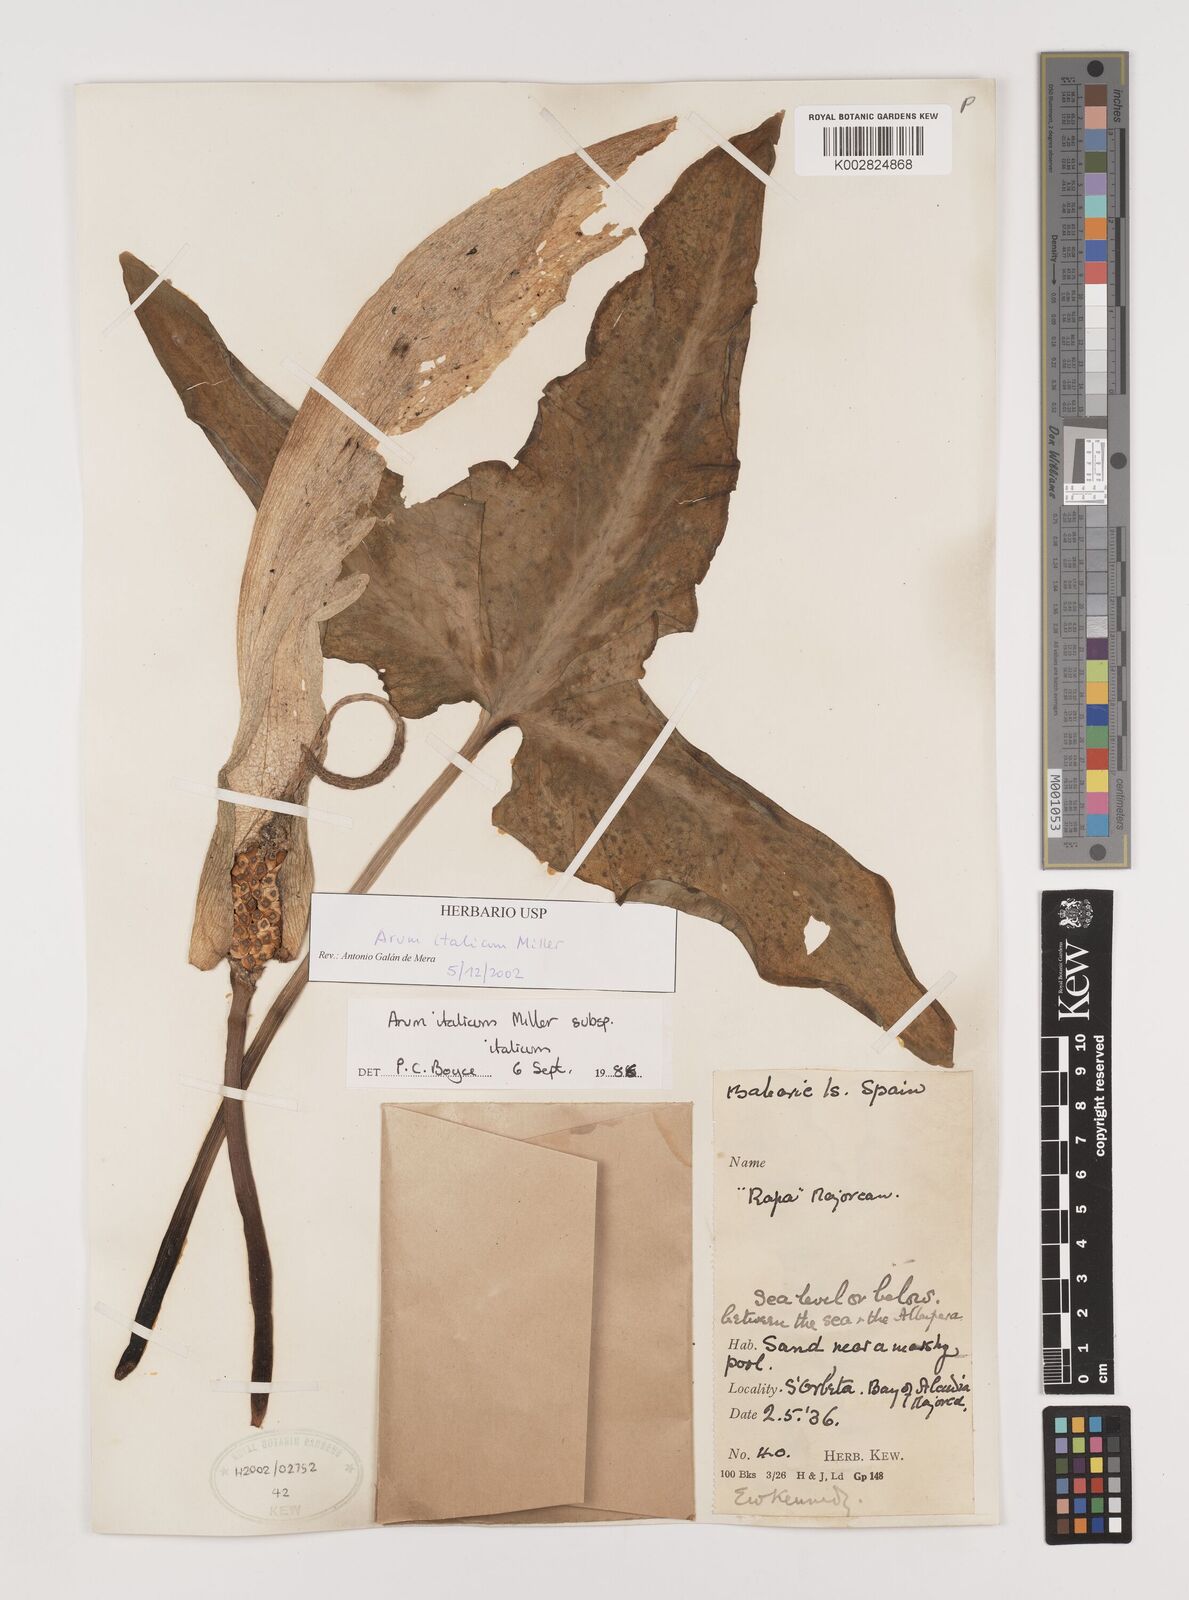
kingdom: Plantae
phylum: Tracheophyta
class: Liliopsida
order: Alismatales
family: Araceae
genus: Arum
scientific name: Arum italicum
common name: Italian lords-and-ladies
